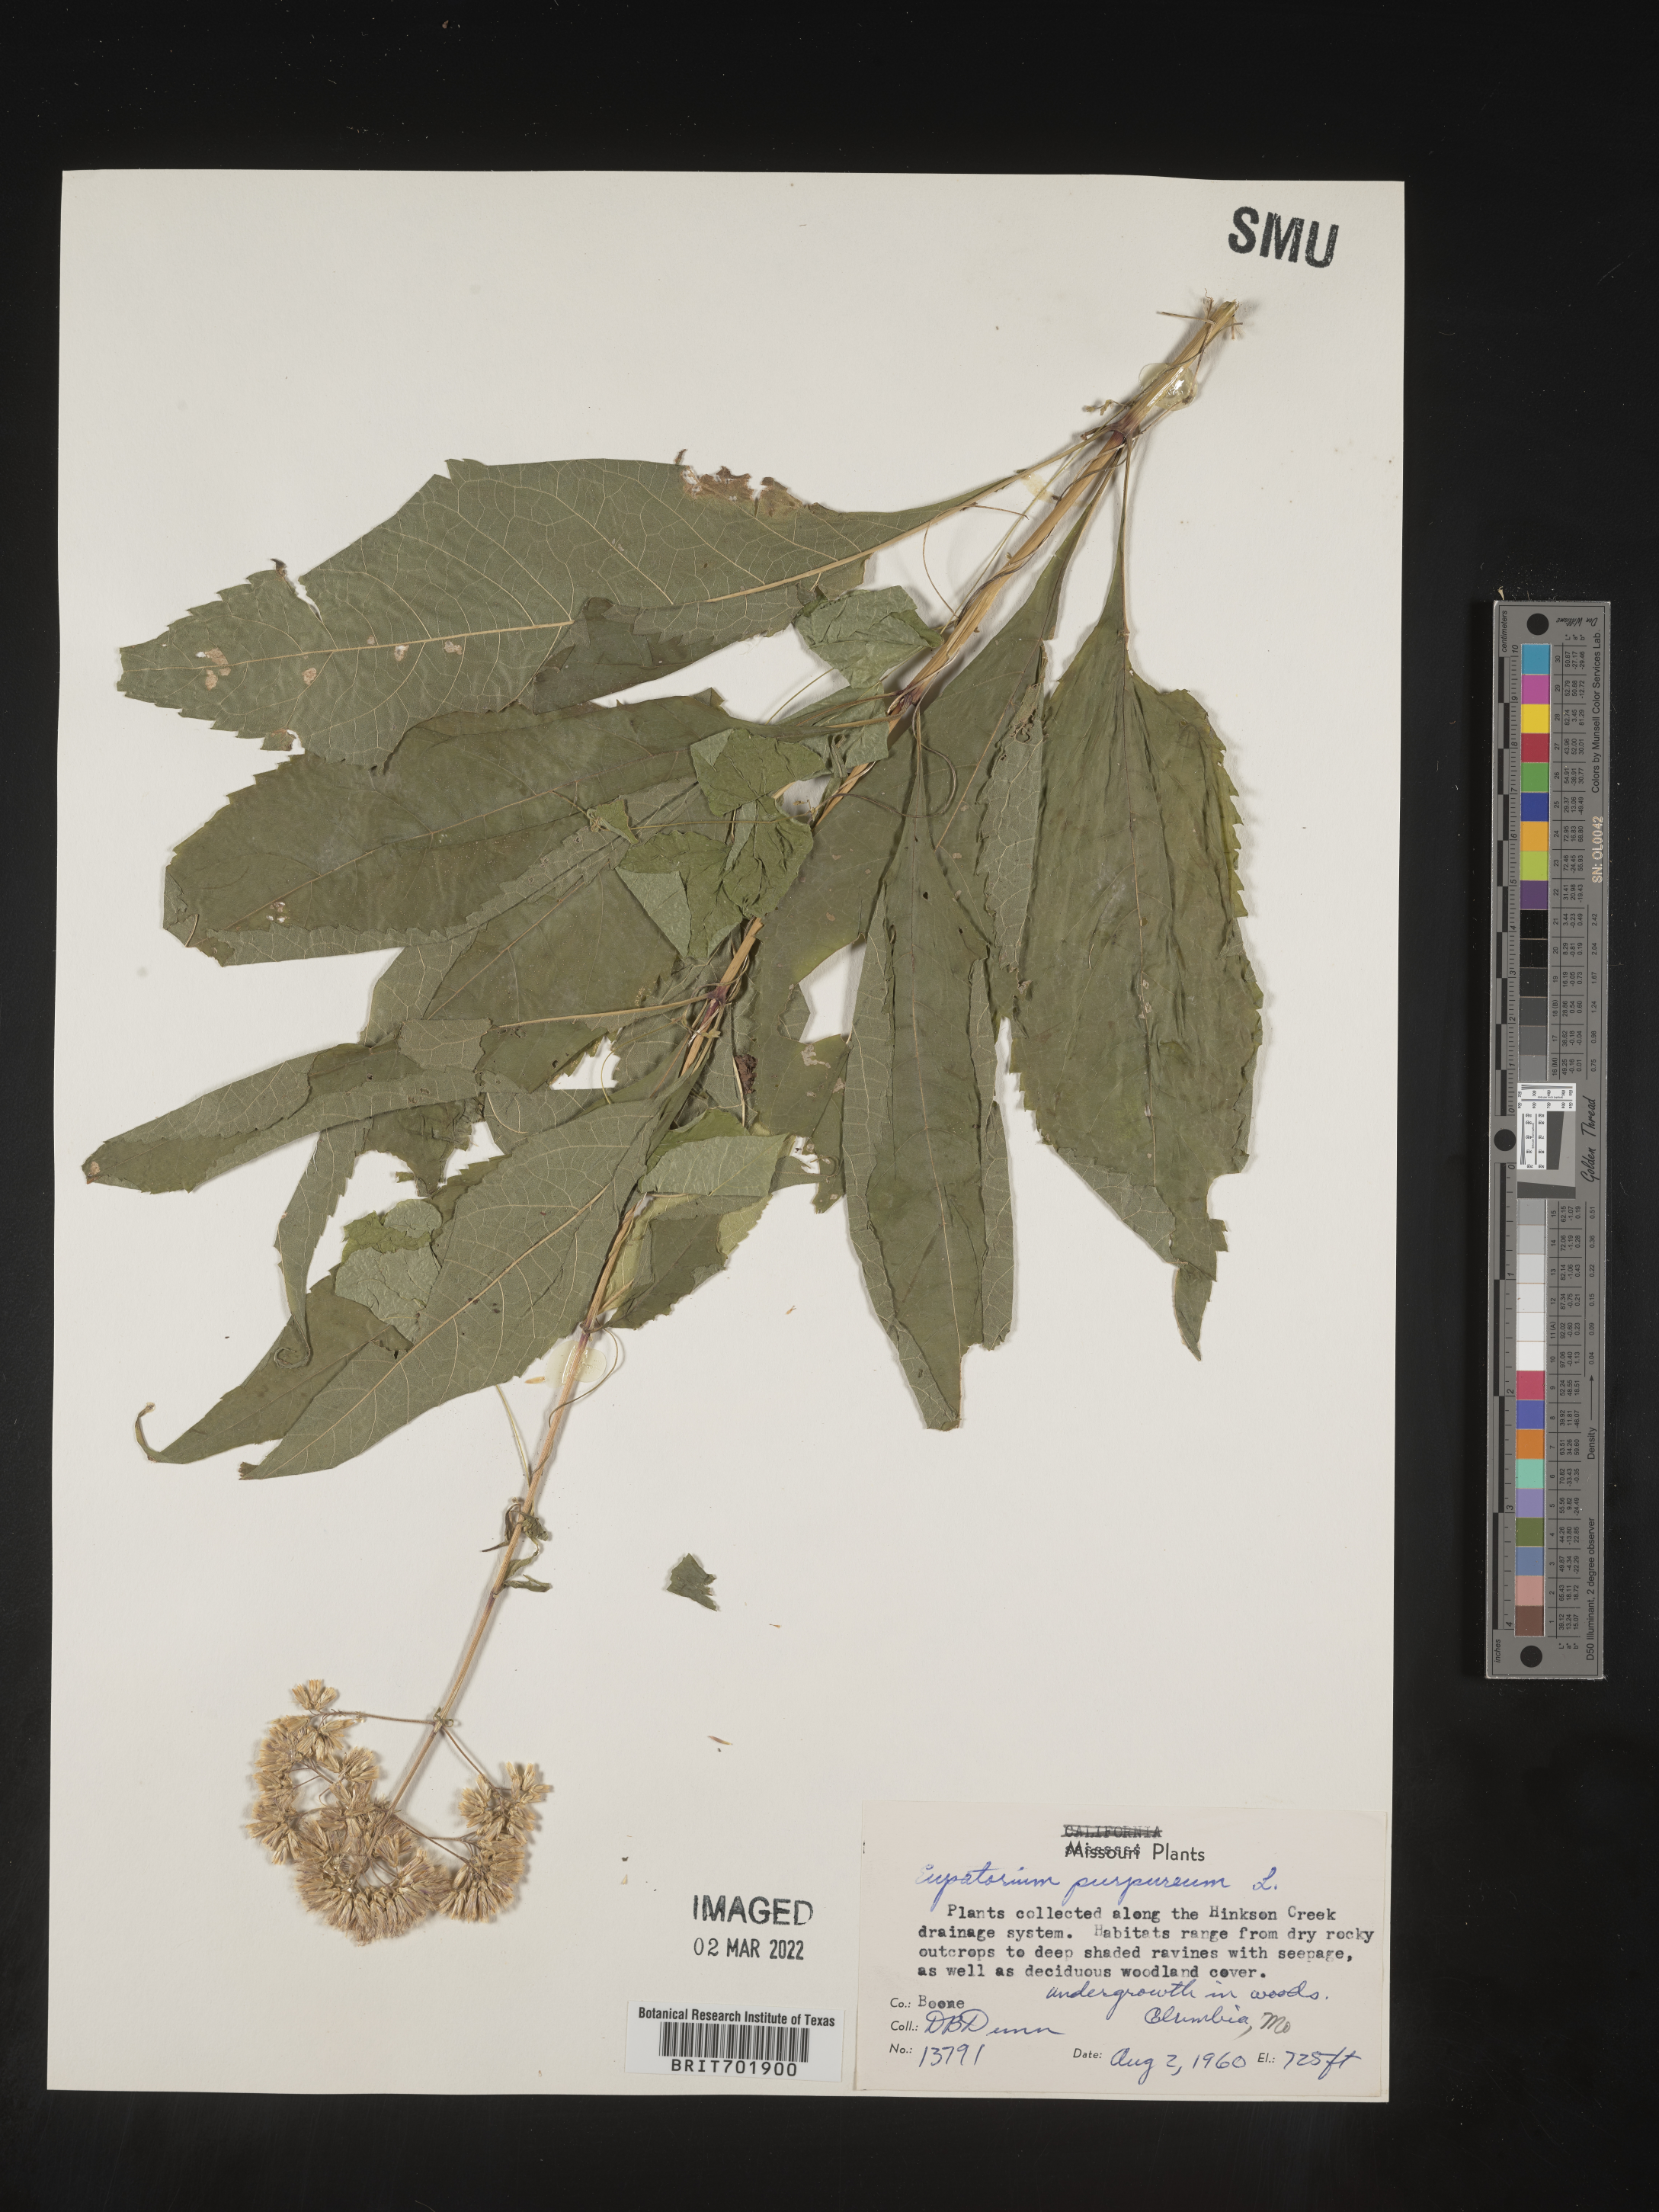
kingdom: Plantae
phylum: Tracheophyta
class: Magnoliopsida
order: Asterales
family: Asteraceae
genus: Eupatorium
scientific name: Eupatorium quaternum
